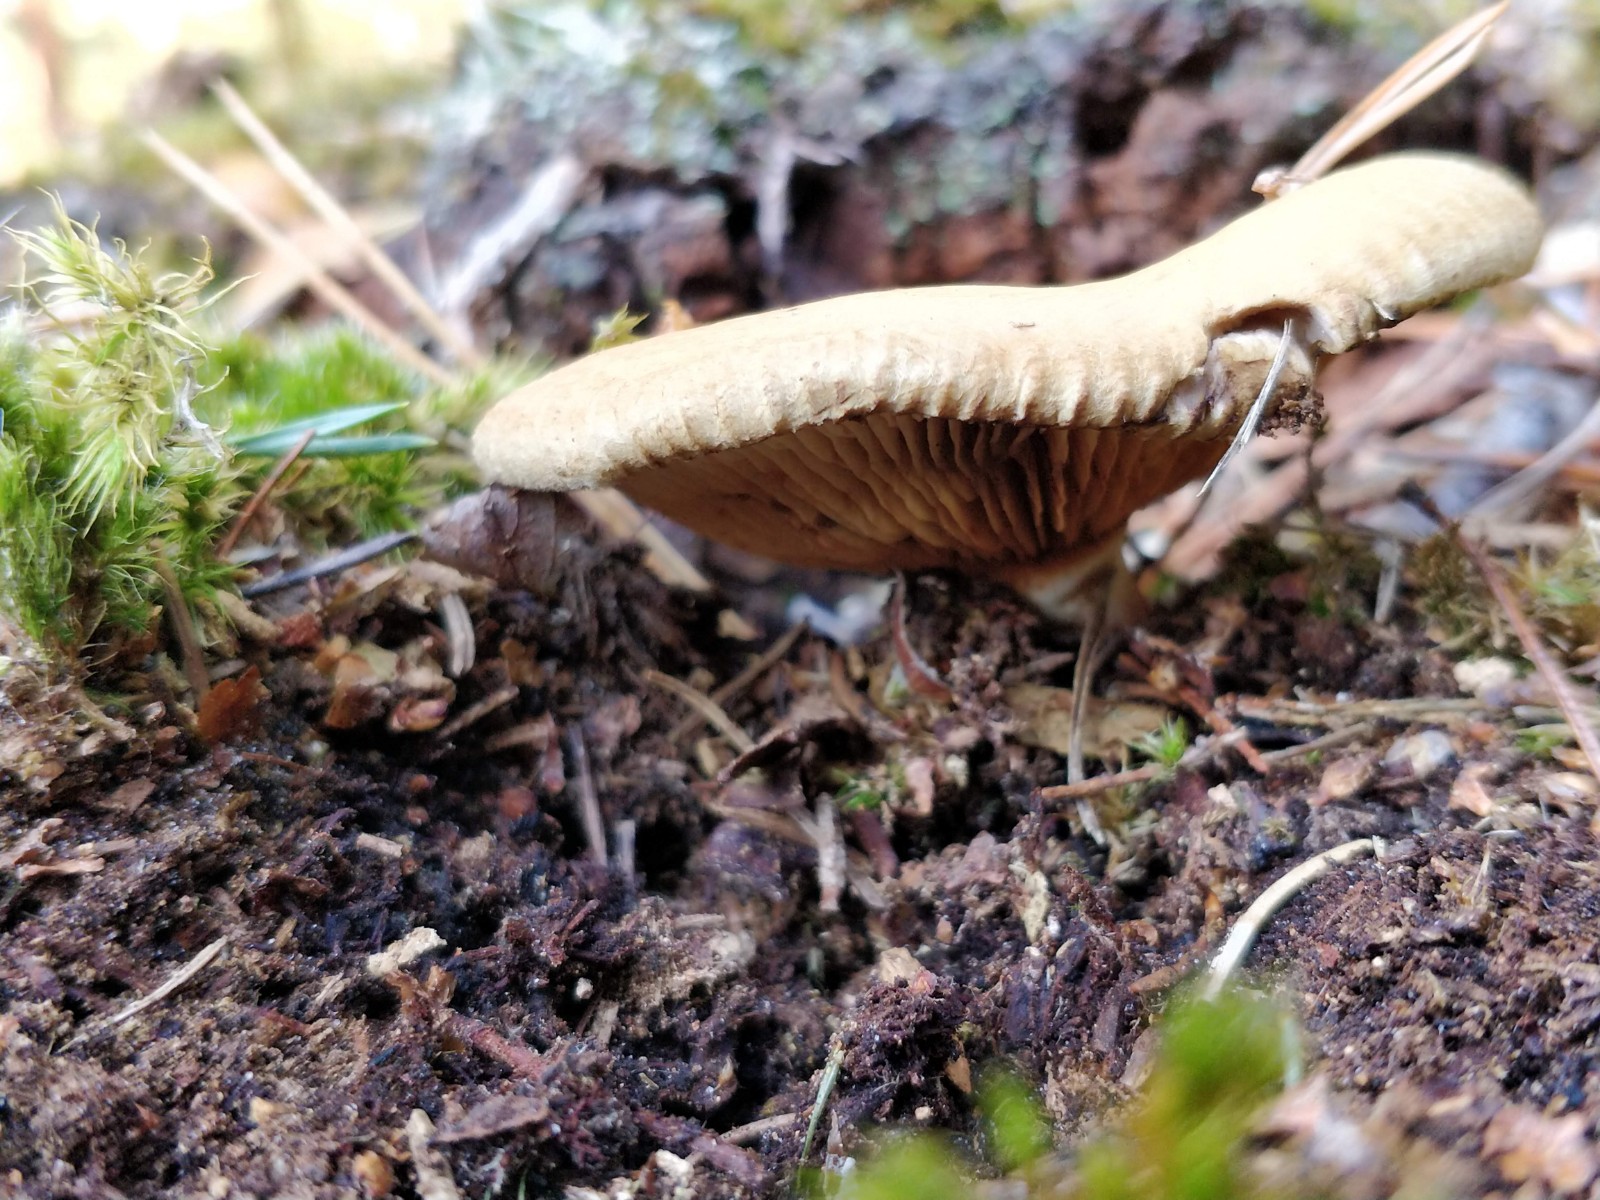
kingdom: Fungi
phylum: Basidiomycota
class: Agaricomycetes
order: Boletales
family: Paxillaceae
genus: Paxillus
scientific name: Paxillus involutus
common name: almindelig netbladhat
